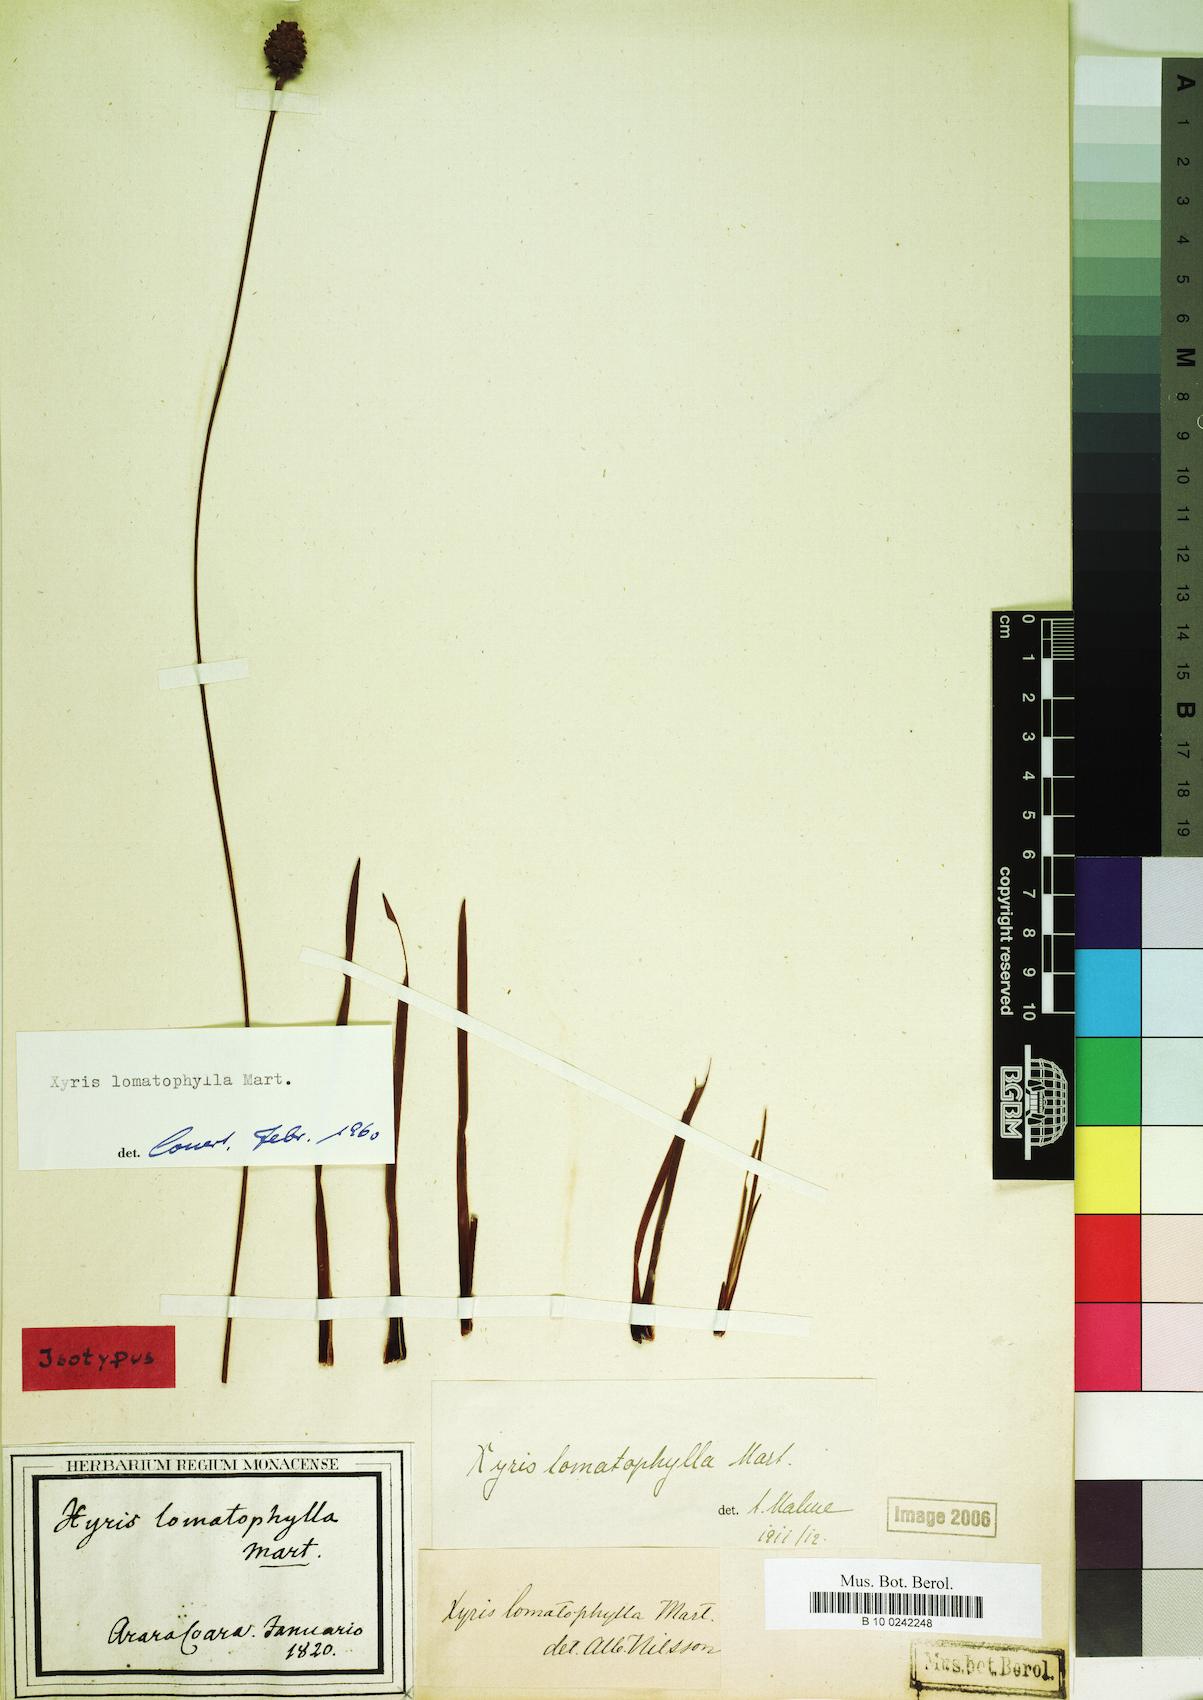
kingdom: Plantae
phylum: Tracheophyta
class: Liliopsida
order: Poales
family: Xyridaceae
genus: Xyris
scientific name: Xyris lomatophylla
